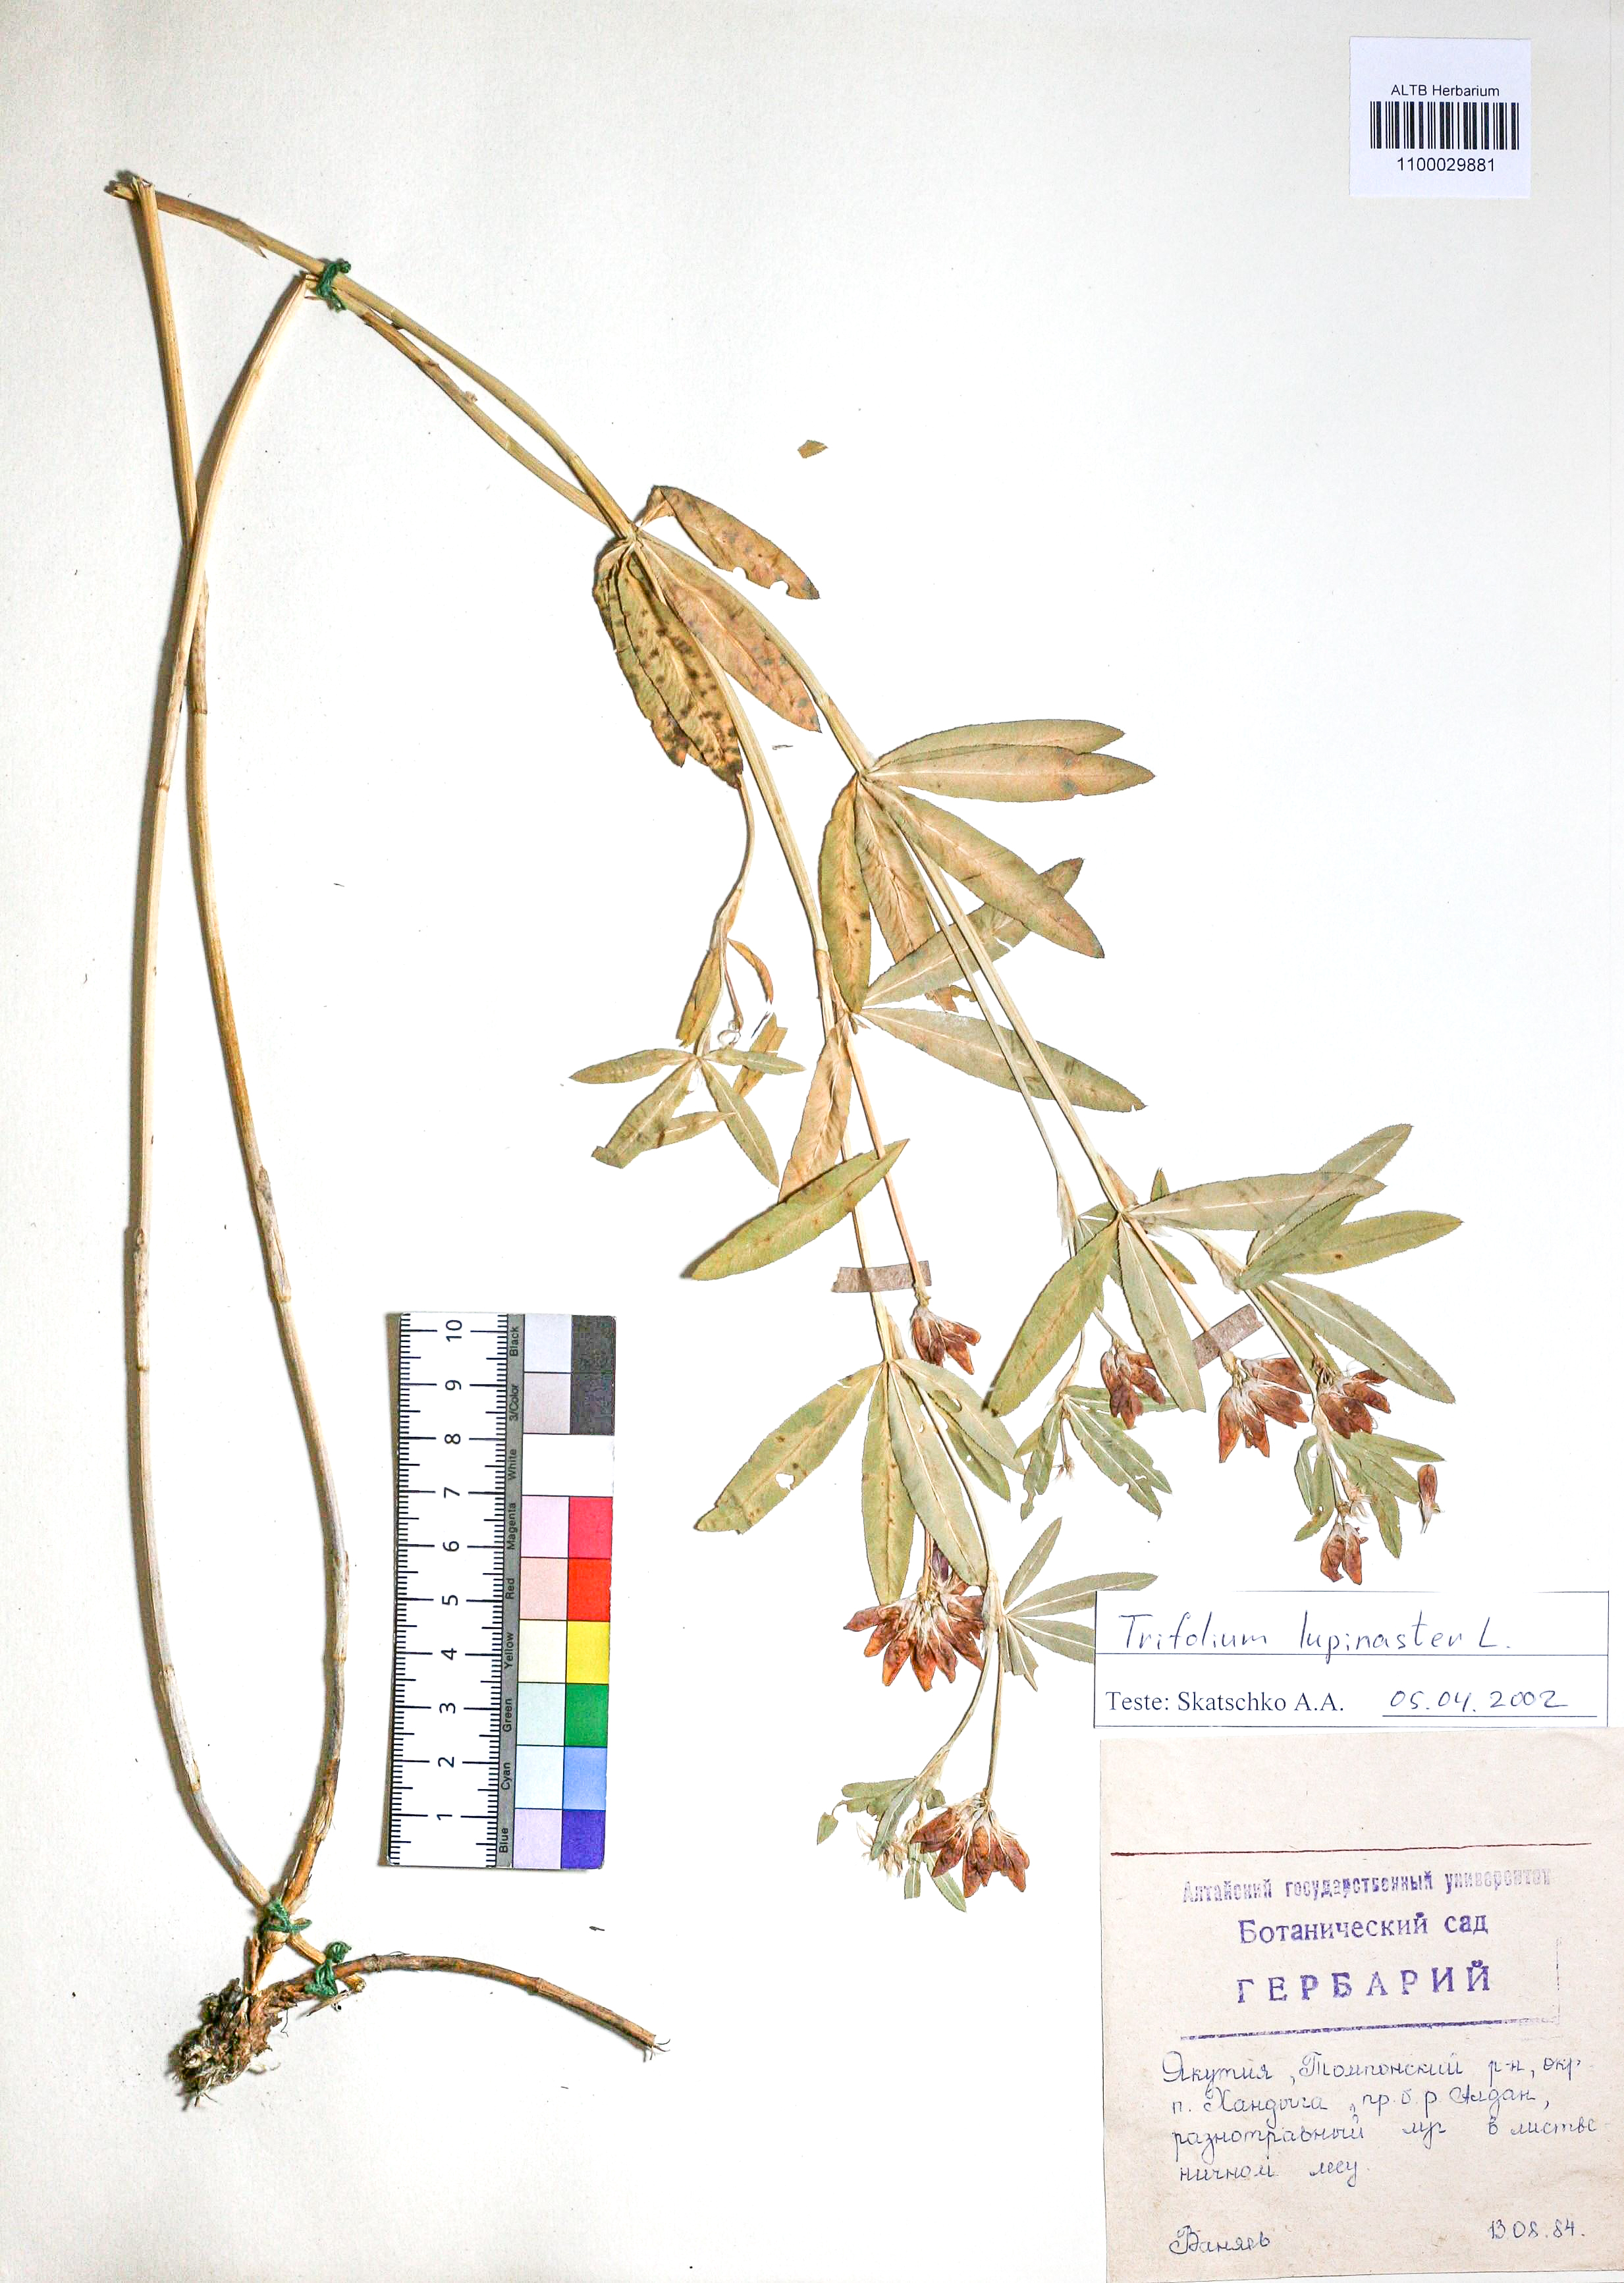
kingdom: Plantae
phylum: Tracheophyta
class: Magnoliopsida
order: Fabales
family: Fabaceae
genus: Trifolium
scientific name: Trifolium lupinaster
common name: Lupine clover
